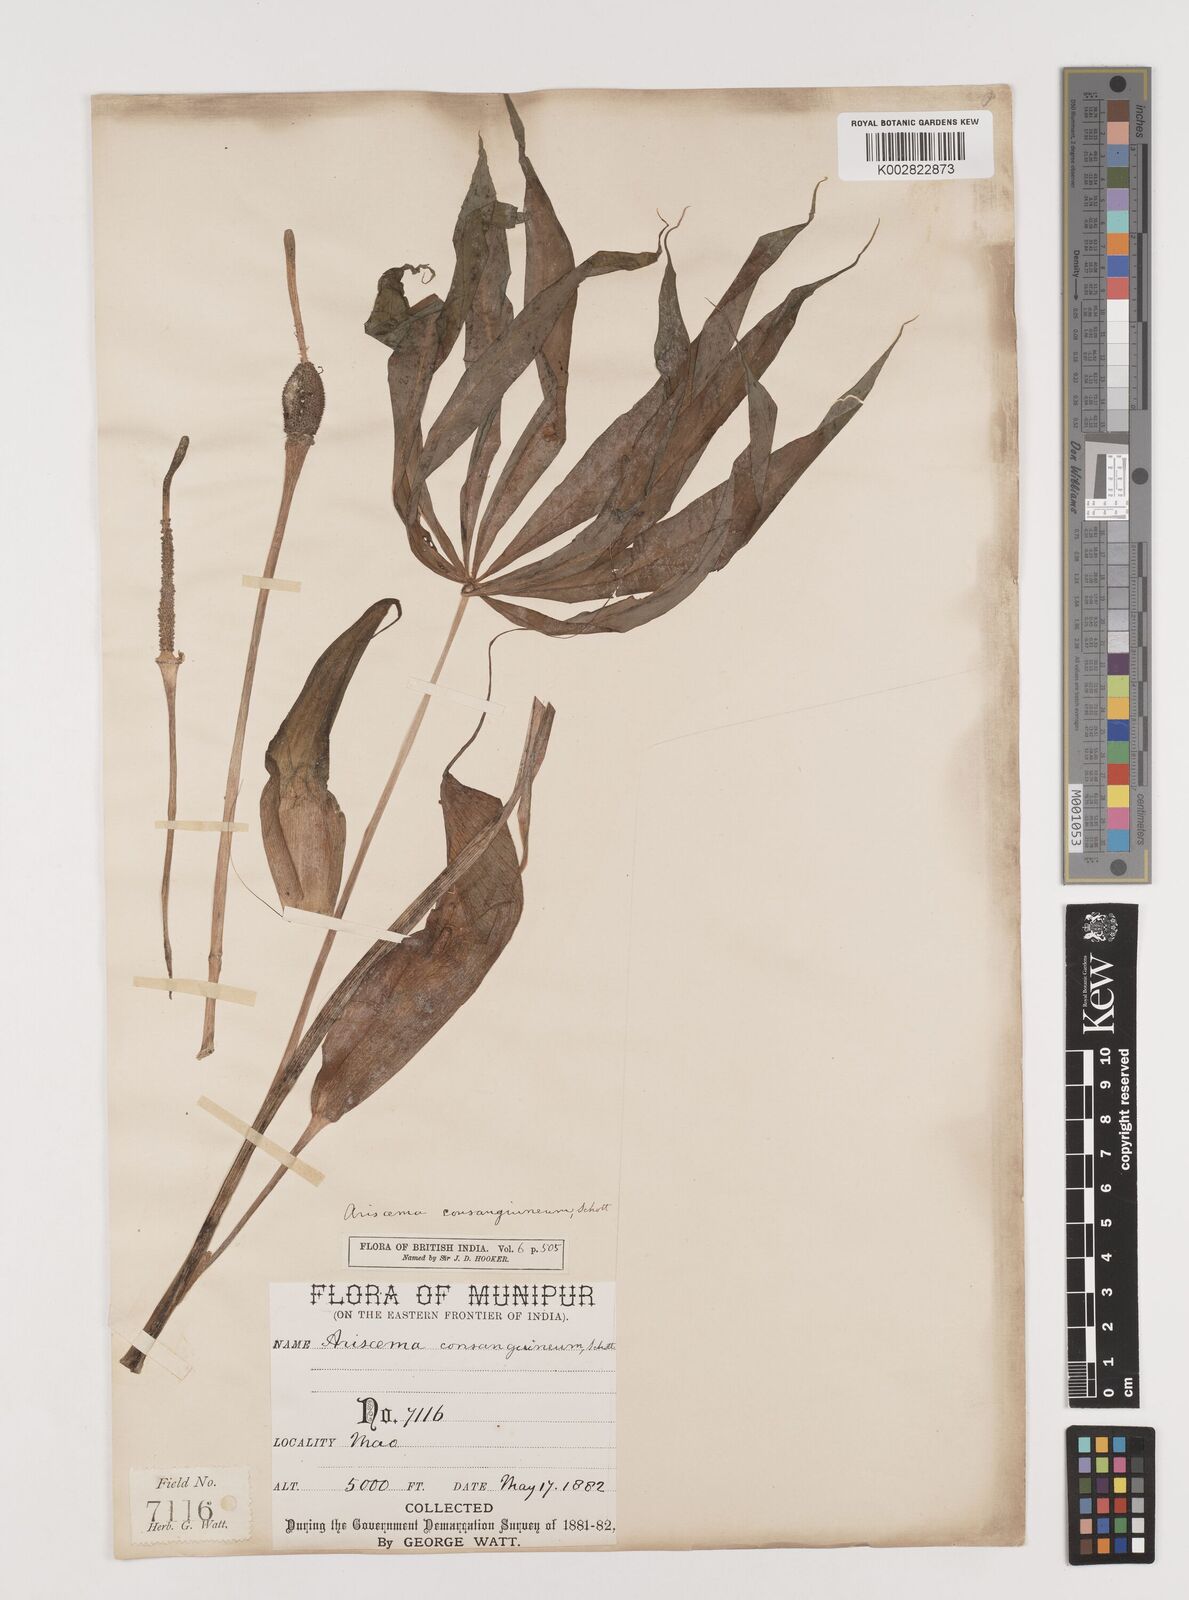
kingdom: Plantae
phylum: Tracheophyta
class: Liliopsida
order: Alismatales
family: Araceae
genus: Arisaema
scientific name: Arisaema erubescens
